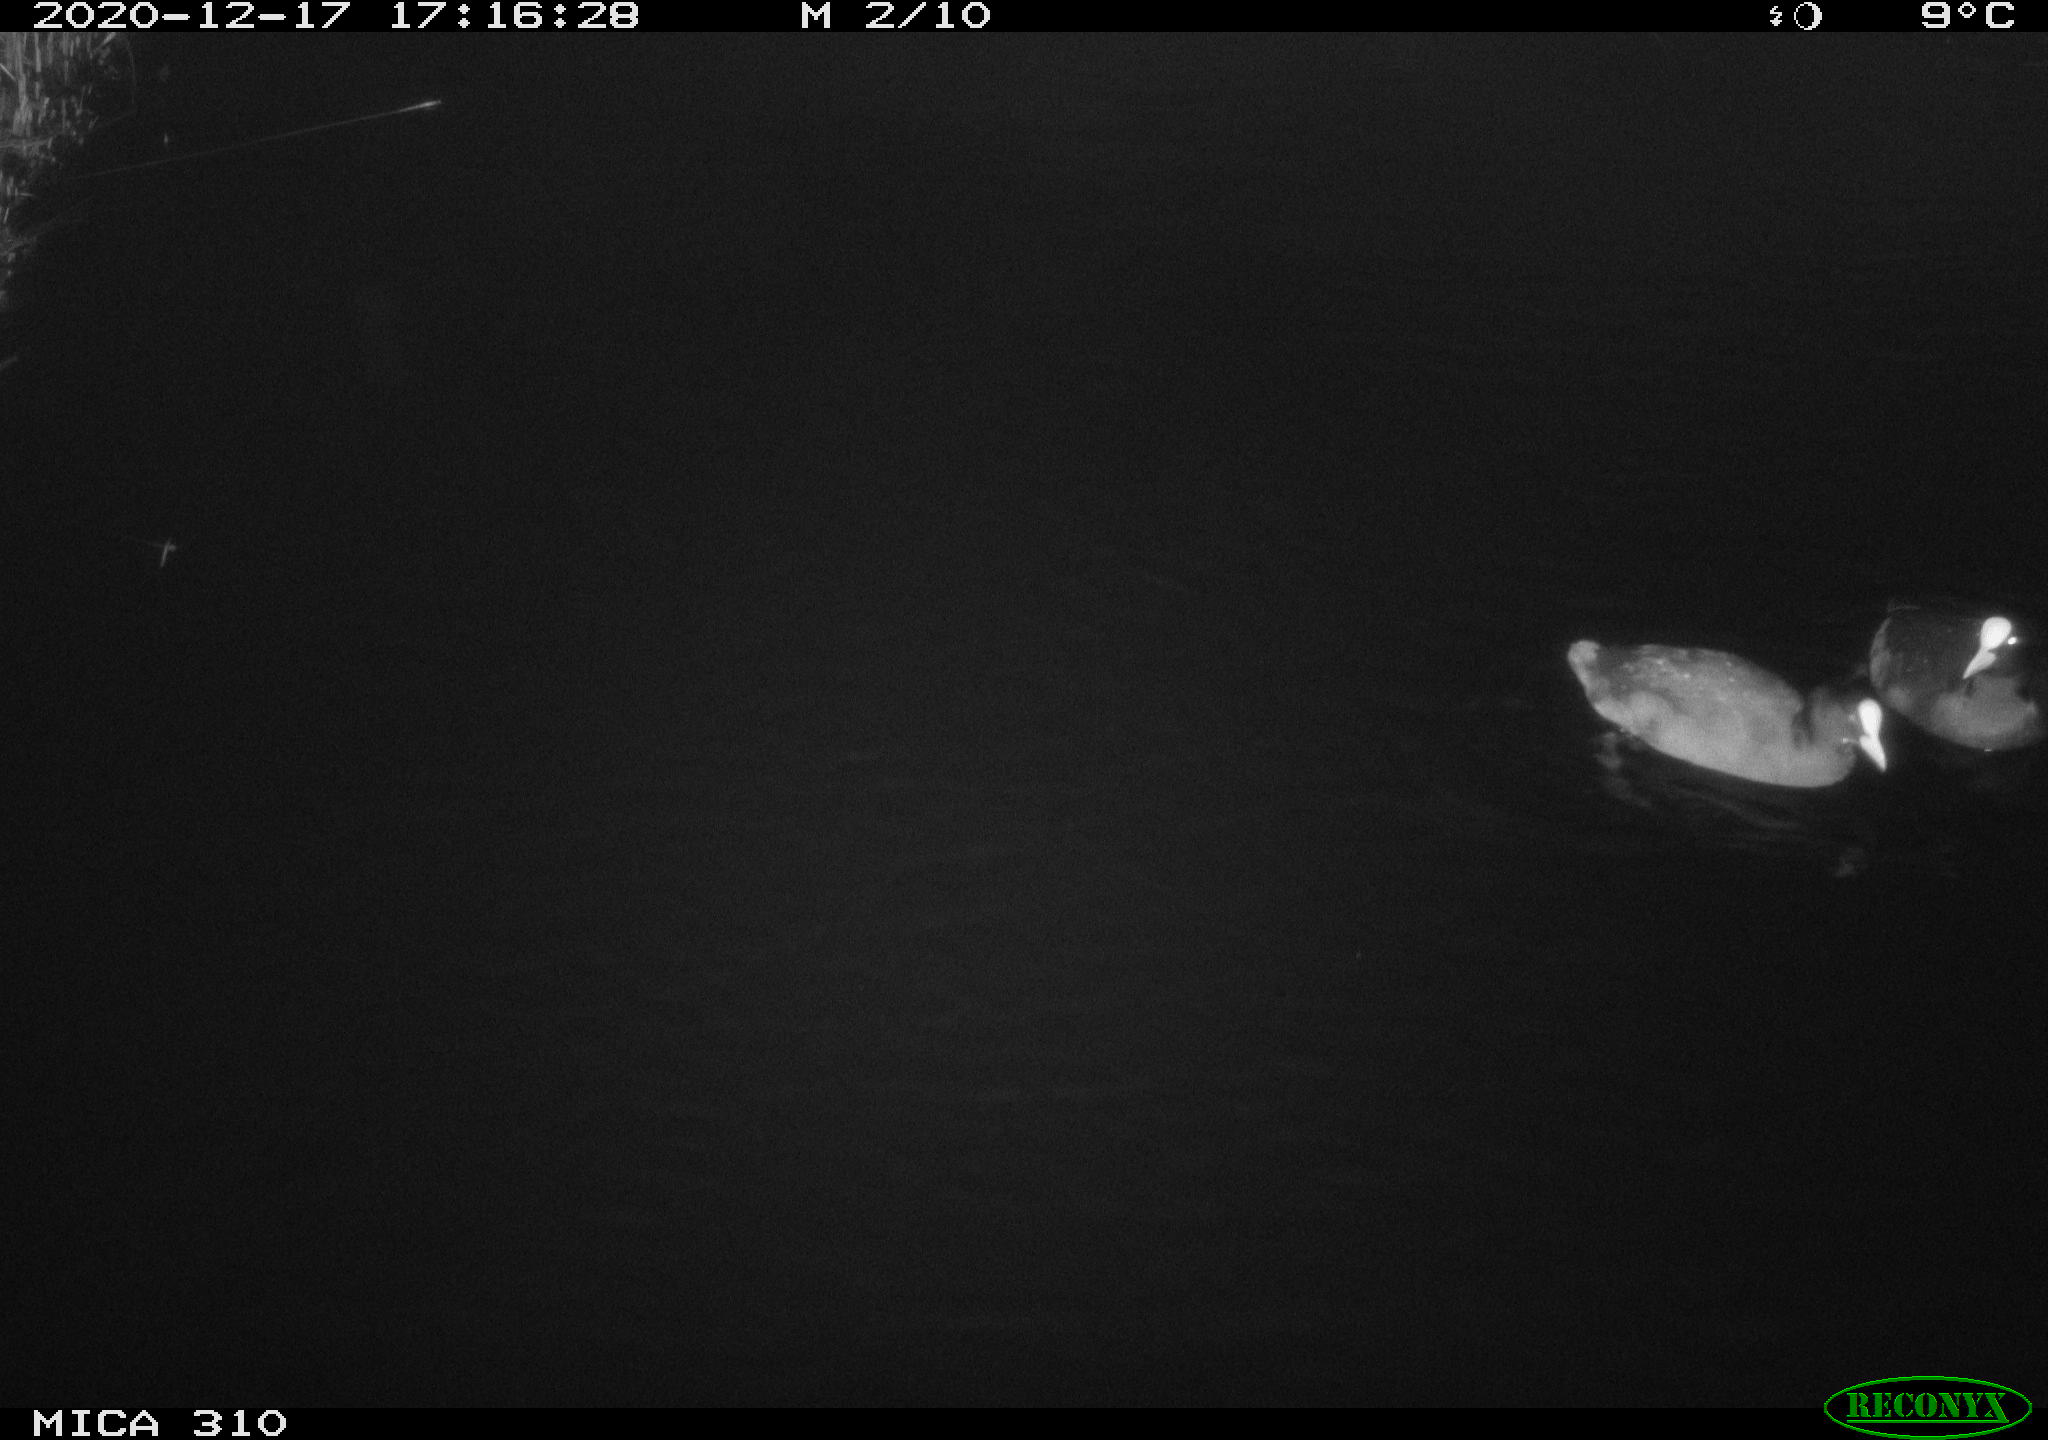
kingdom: Animalia
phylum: Chordata
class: Aves
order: Gruiformes
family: Rallidae
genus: Fulica
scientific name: Fulica atra
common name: Eurasian coot
